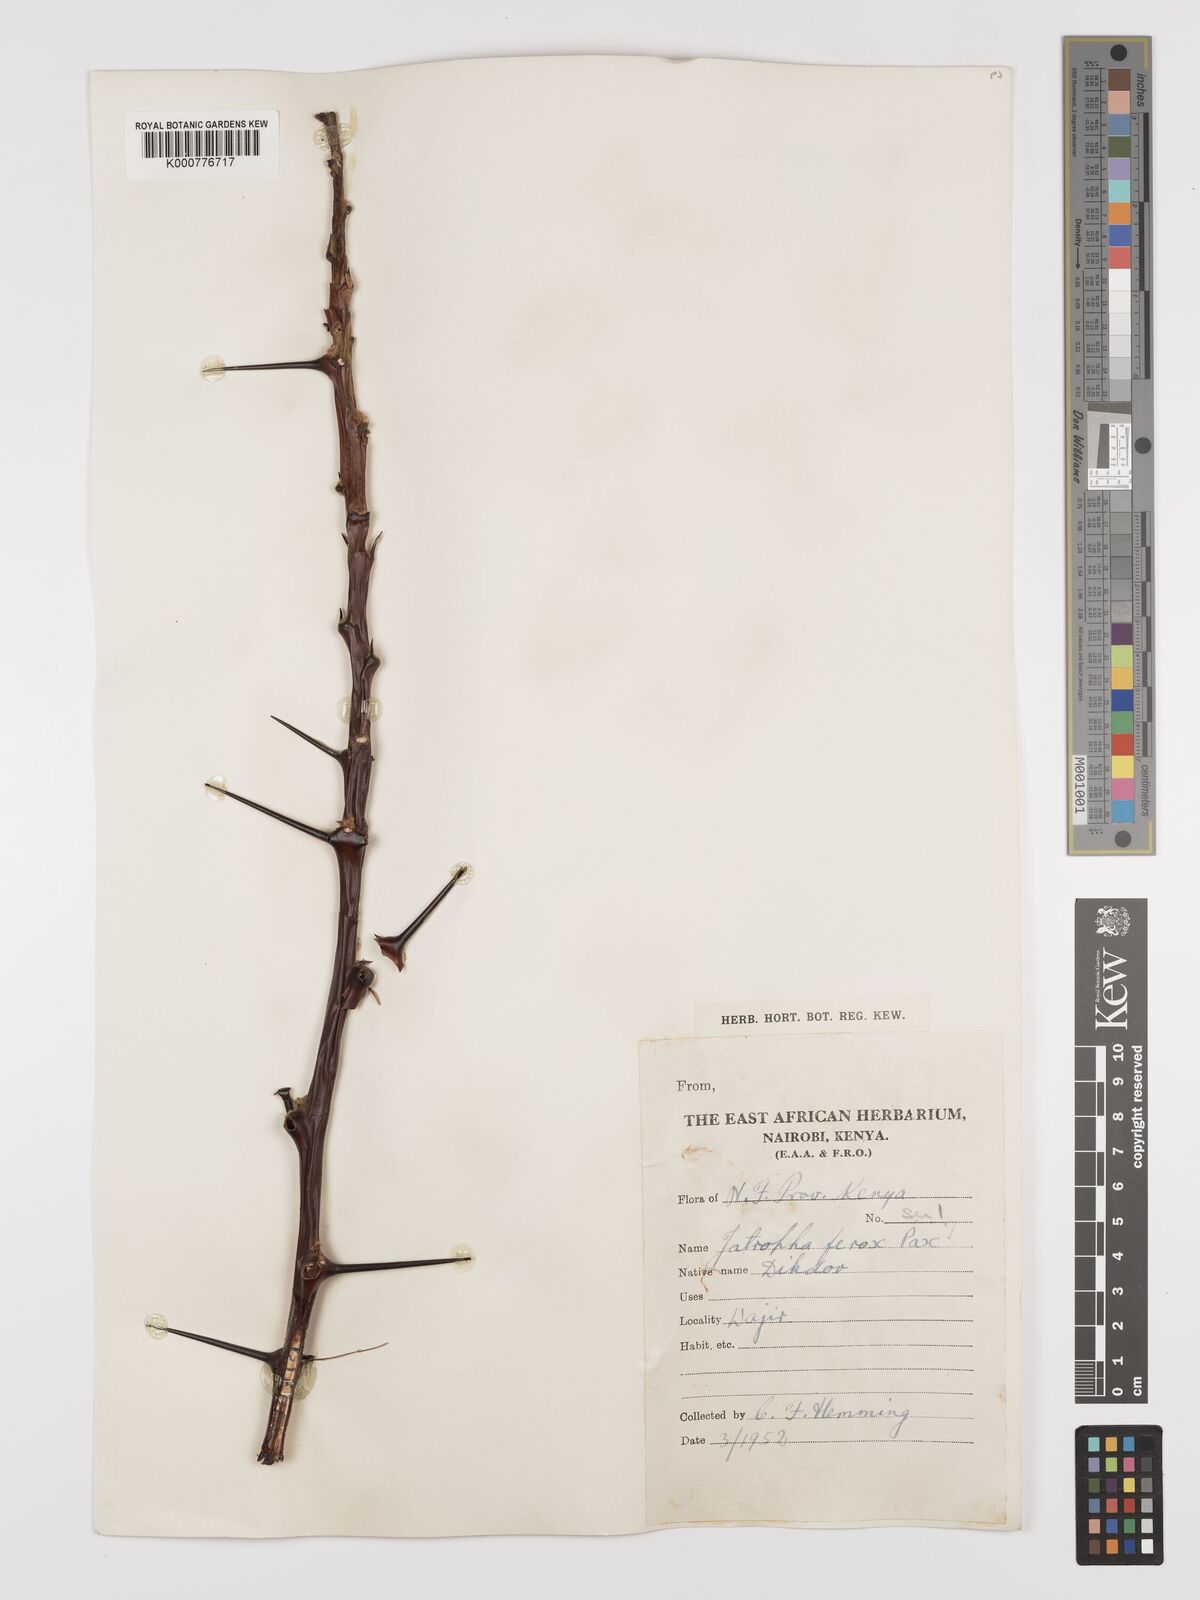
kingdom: Plantae
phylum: Tracheophyta
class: Magnoliopsida
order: Malpighiales
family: Euphorbiaceae
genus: Jatropha
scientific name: Jatropha dichtar
